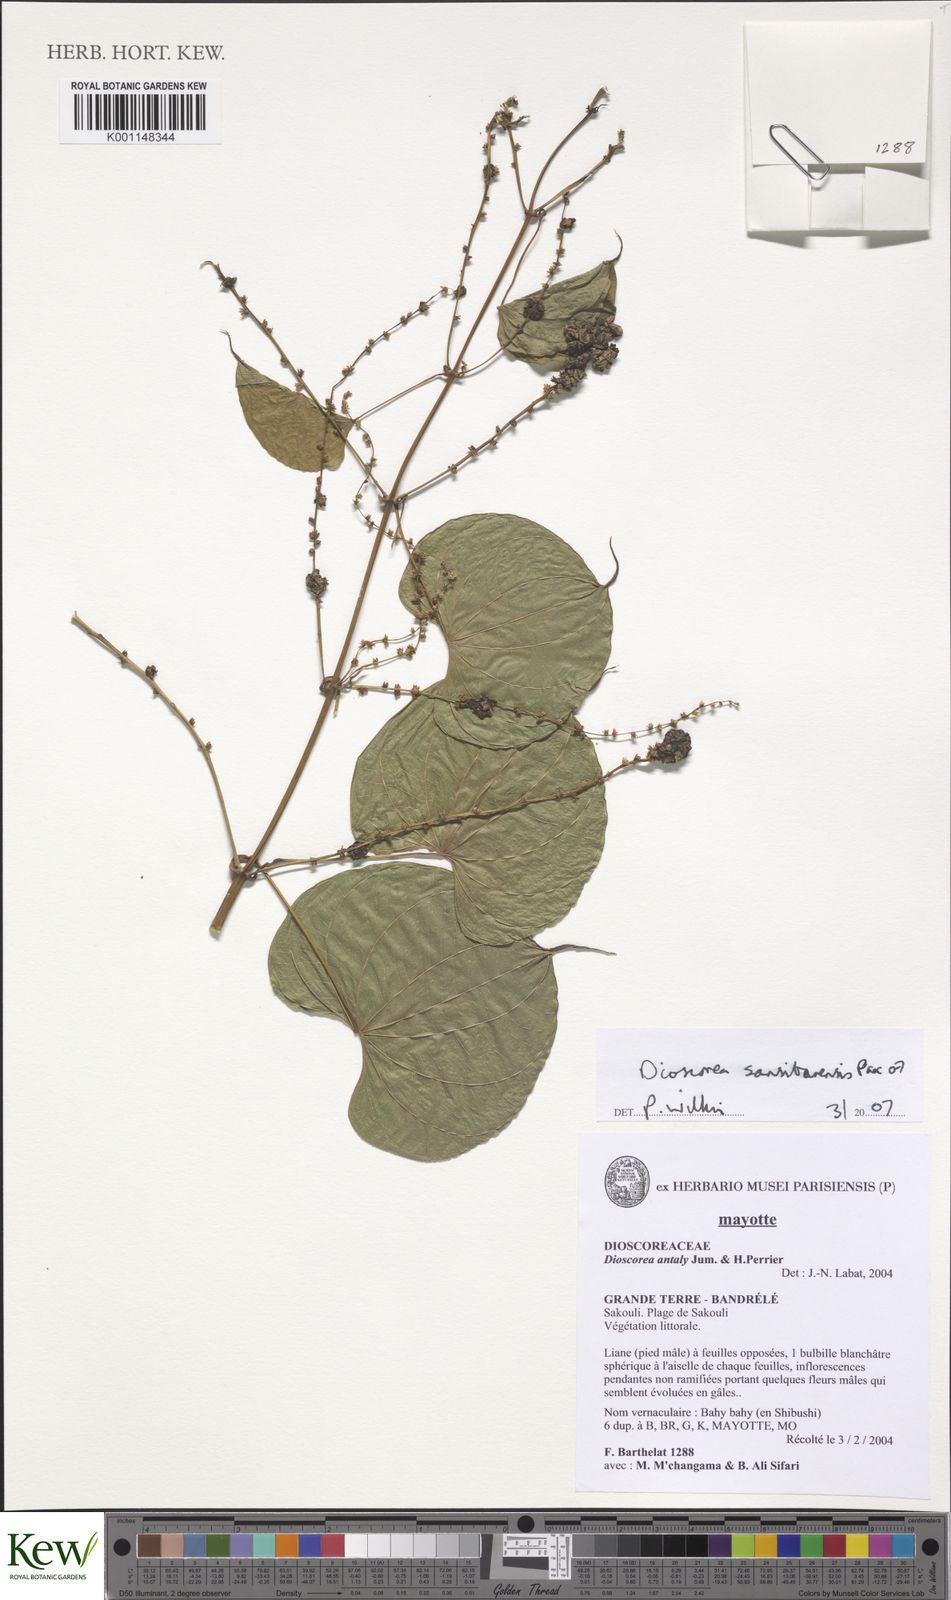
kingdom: Plantae
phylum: Tracheophyta
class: Liliopsida
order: Dioscoreales
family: Dioscoreaceae
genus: Dioscorea
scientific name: Dioscorea sansibarensis
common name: Zanzibar yam
